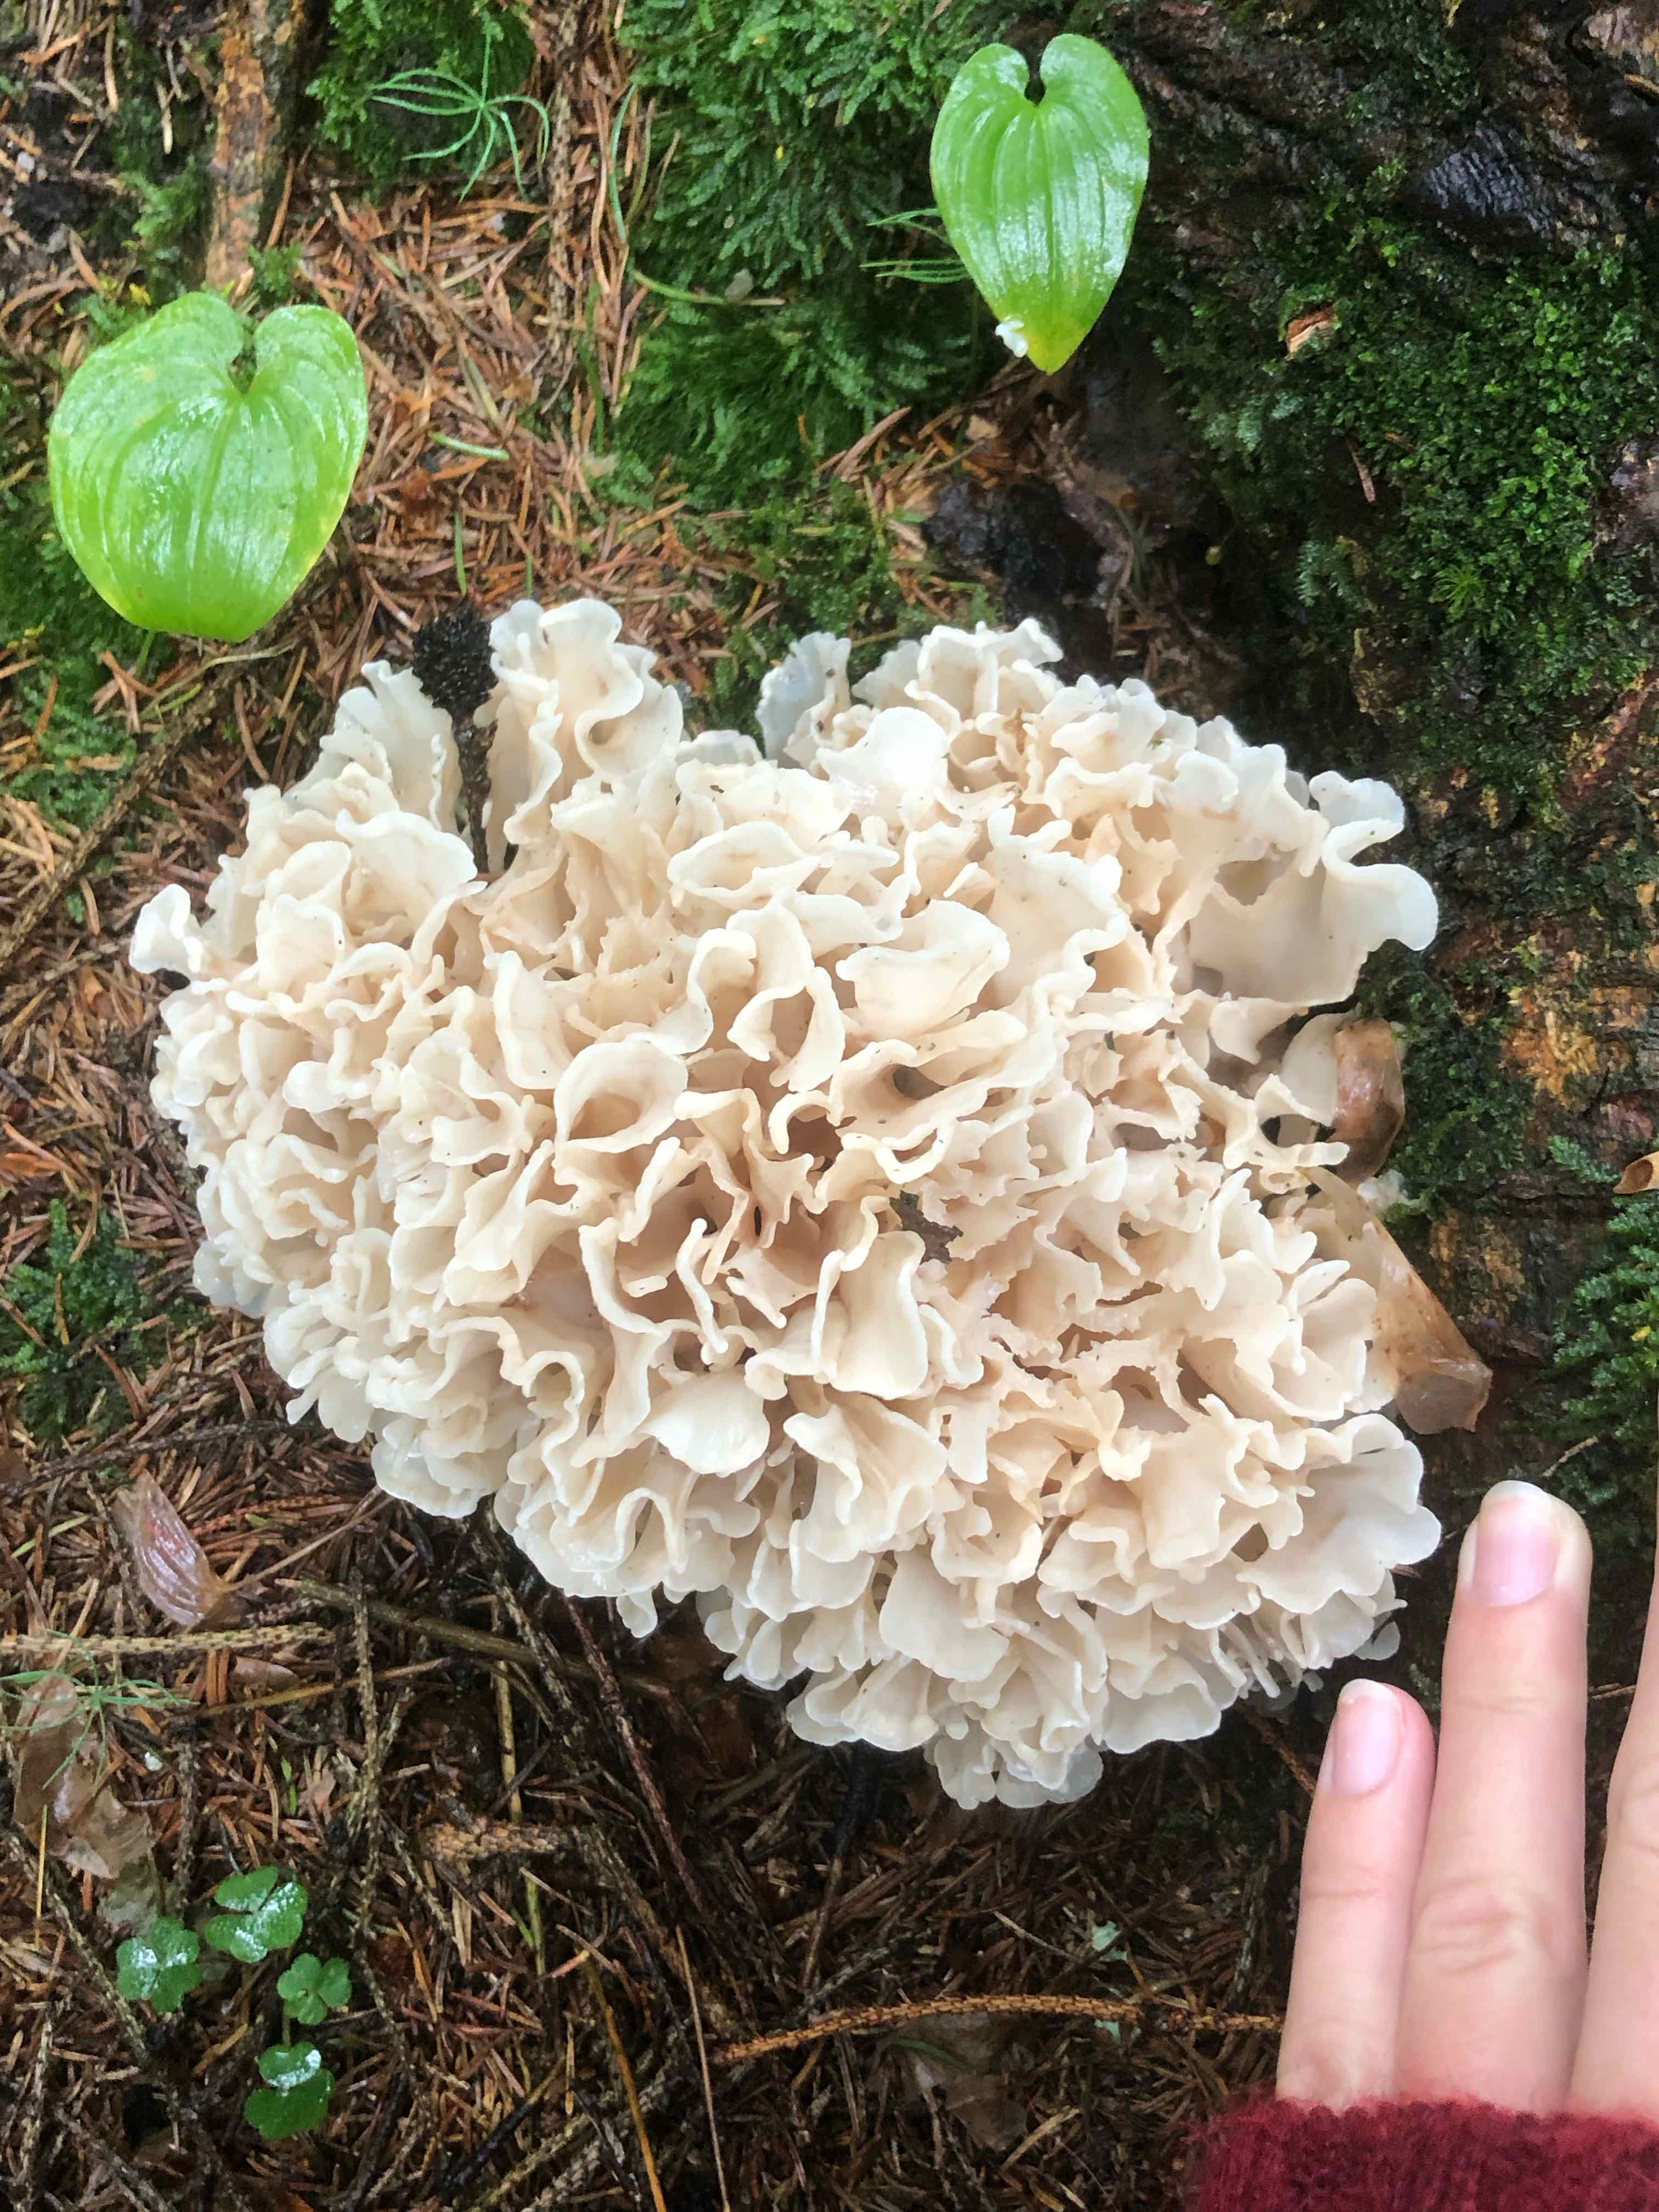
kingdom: Fungi
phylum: Basidiomycota
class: Agaricomycetes
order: Polyporales
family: Sparassidaceae
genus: Sparassis
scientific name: Sparassis brevipes
